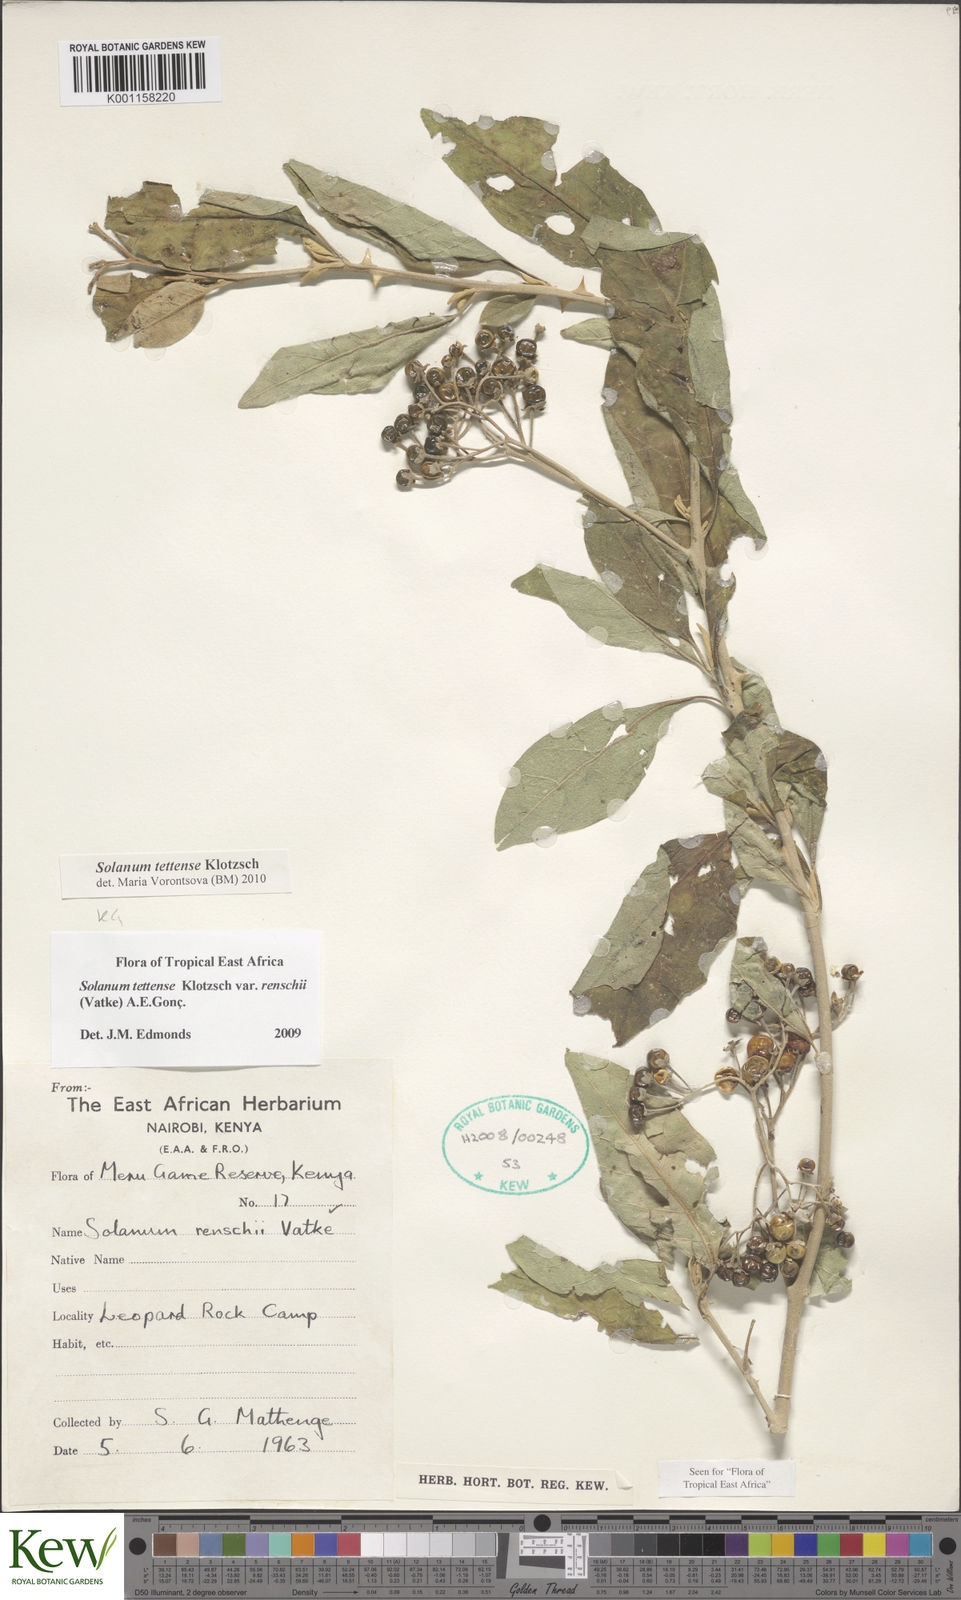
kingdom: Plantae
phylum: Tracheophyta
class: Magnoliopsida
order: Solanales
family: Solanaceae
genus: Solanum
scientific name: Solanum tettense
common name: Mozambique bitter apple
